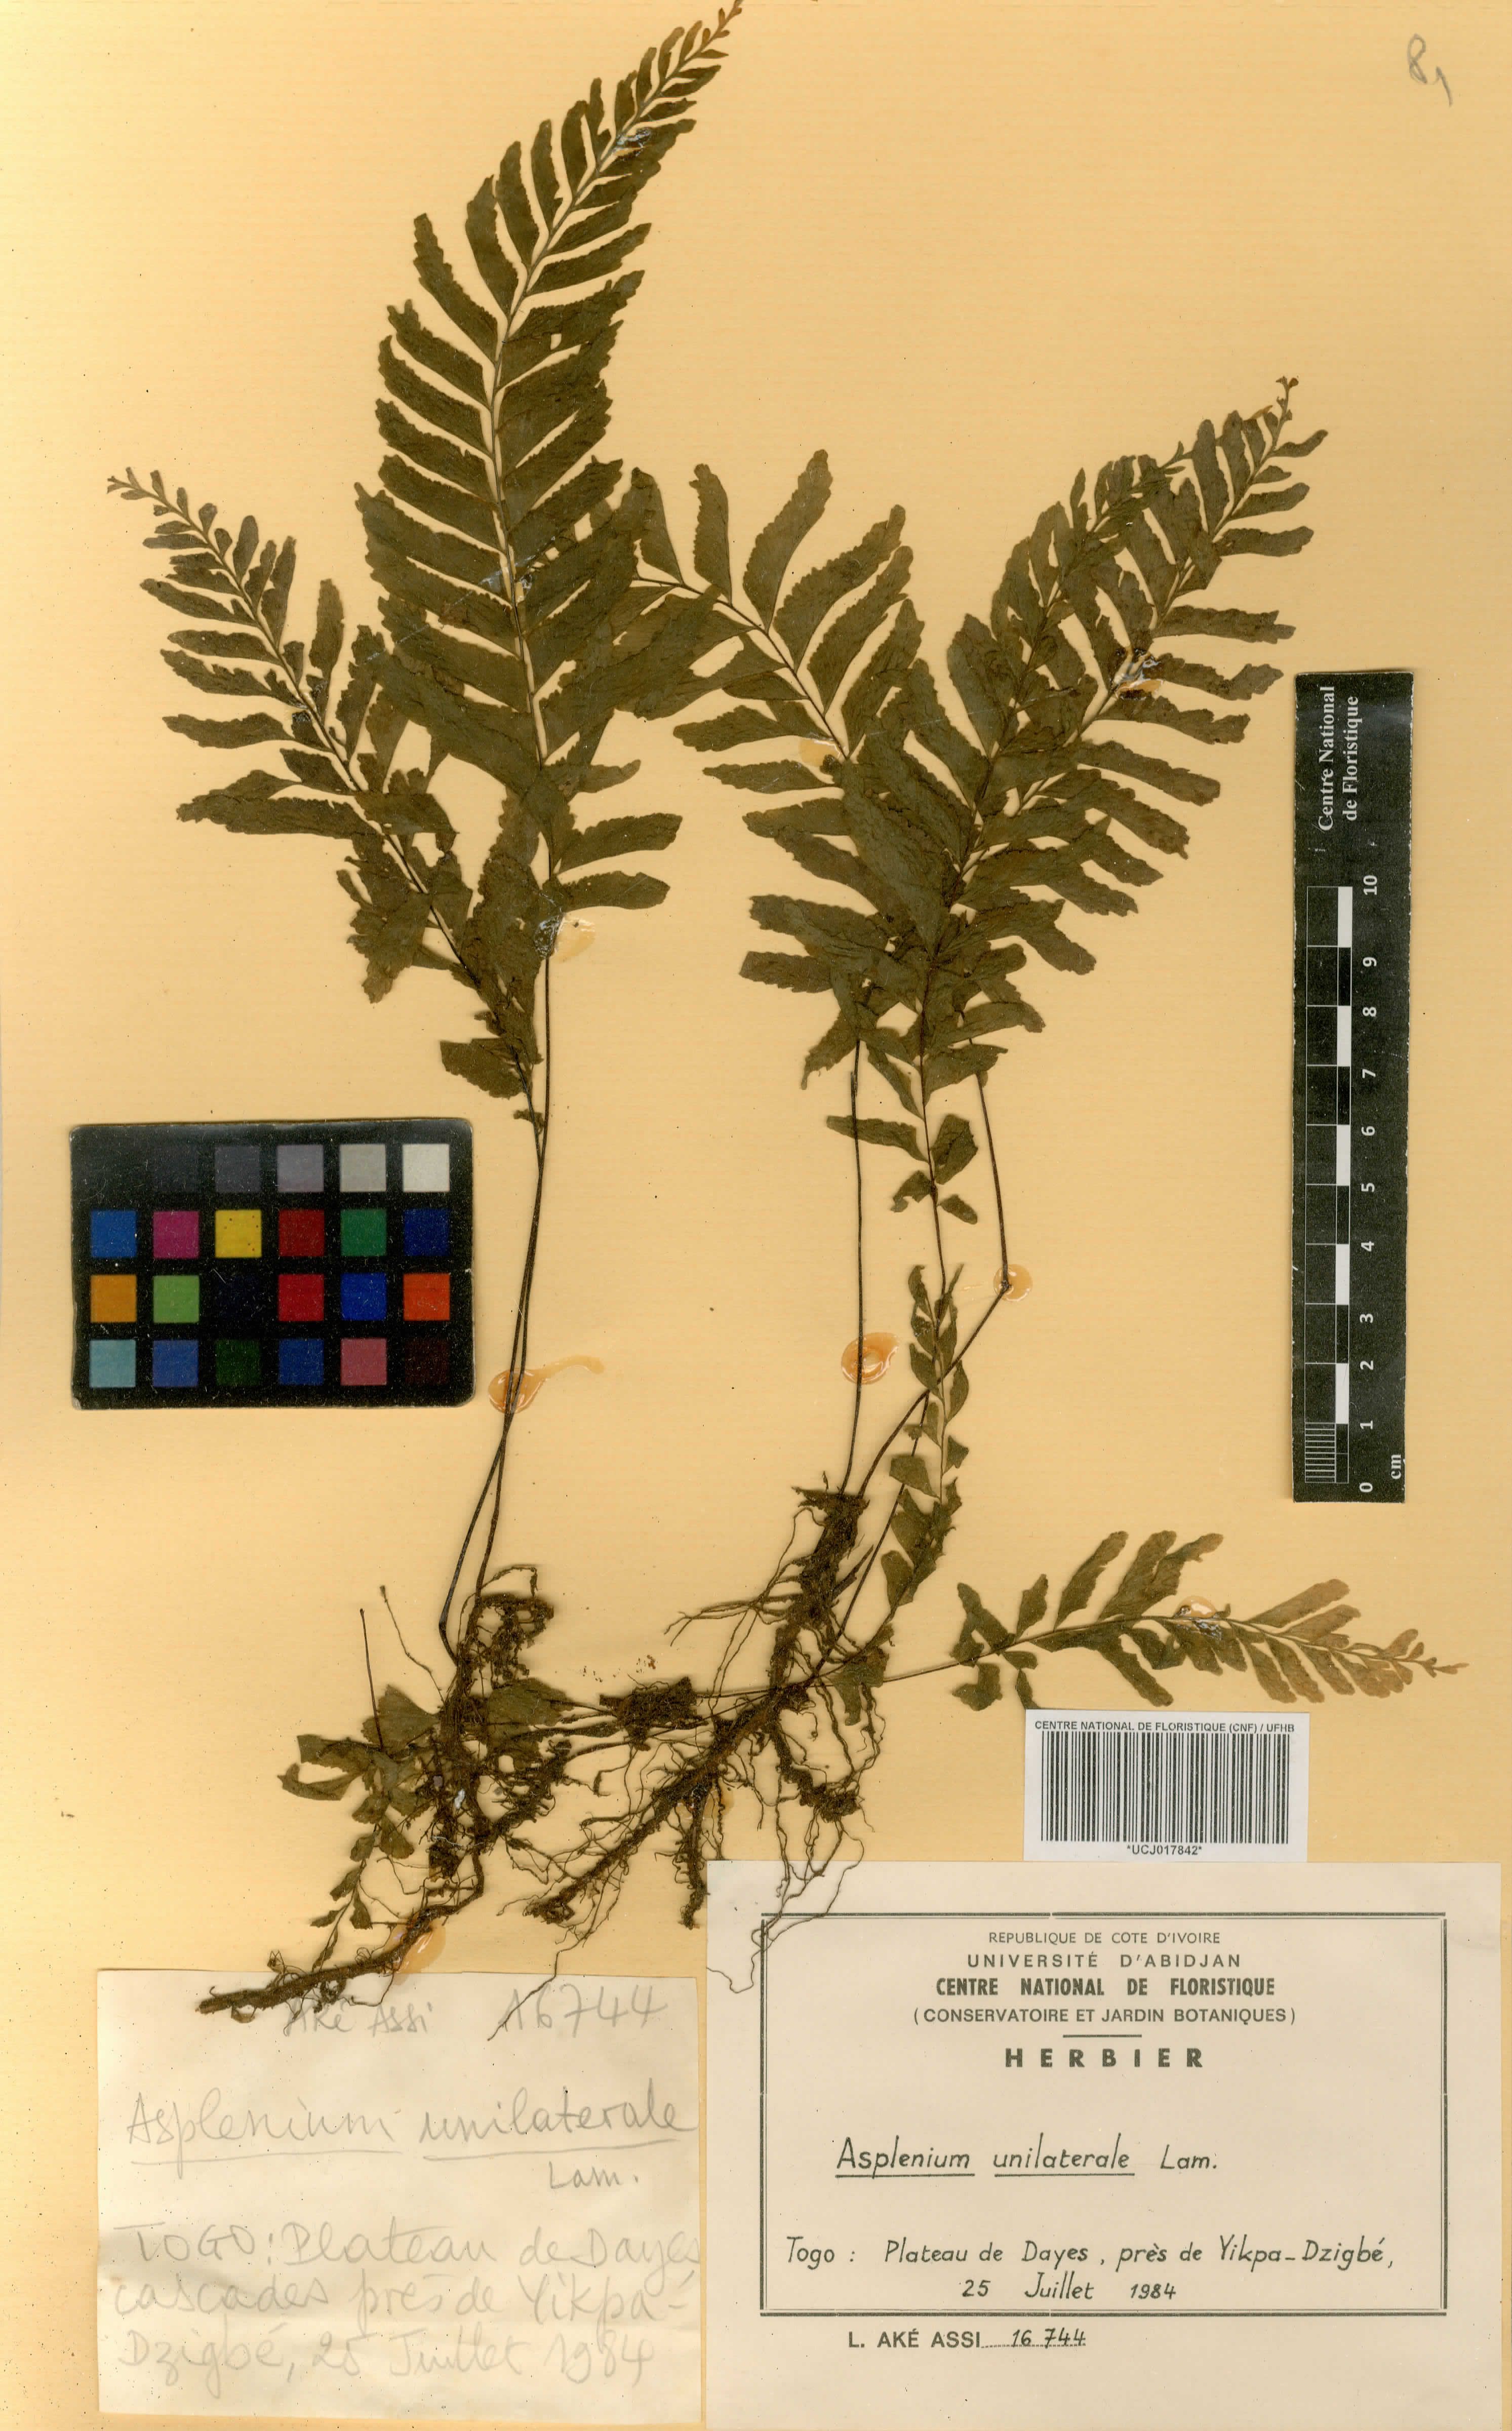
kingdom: Plantae
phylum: Tracheophyta
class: Polypodiopsida
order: Polypodiales
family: Aspleniaceae
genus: Hymenasplenium
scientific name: Hymenasplenium unilaterale
